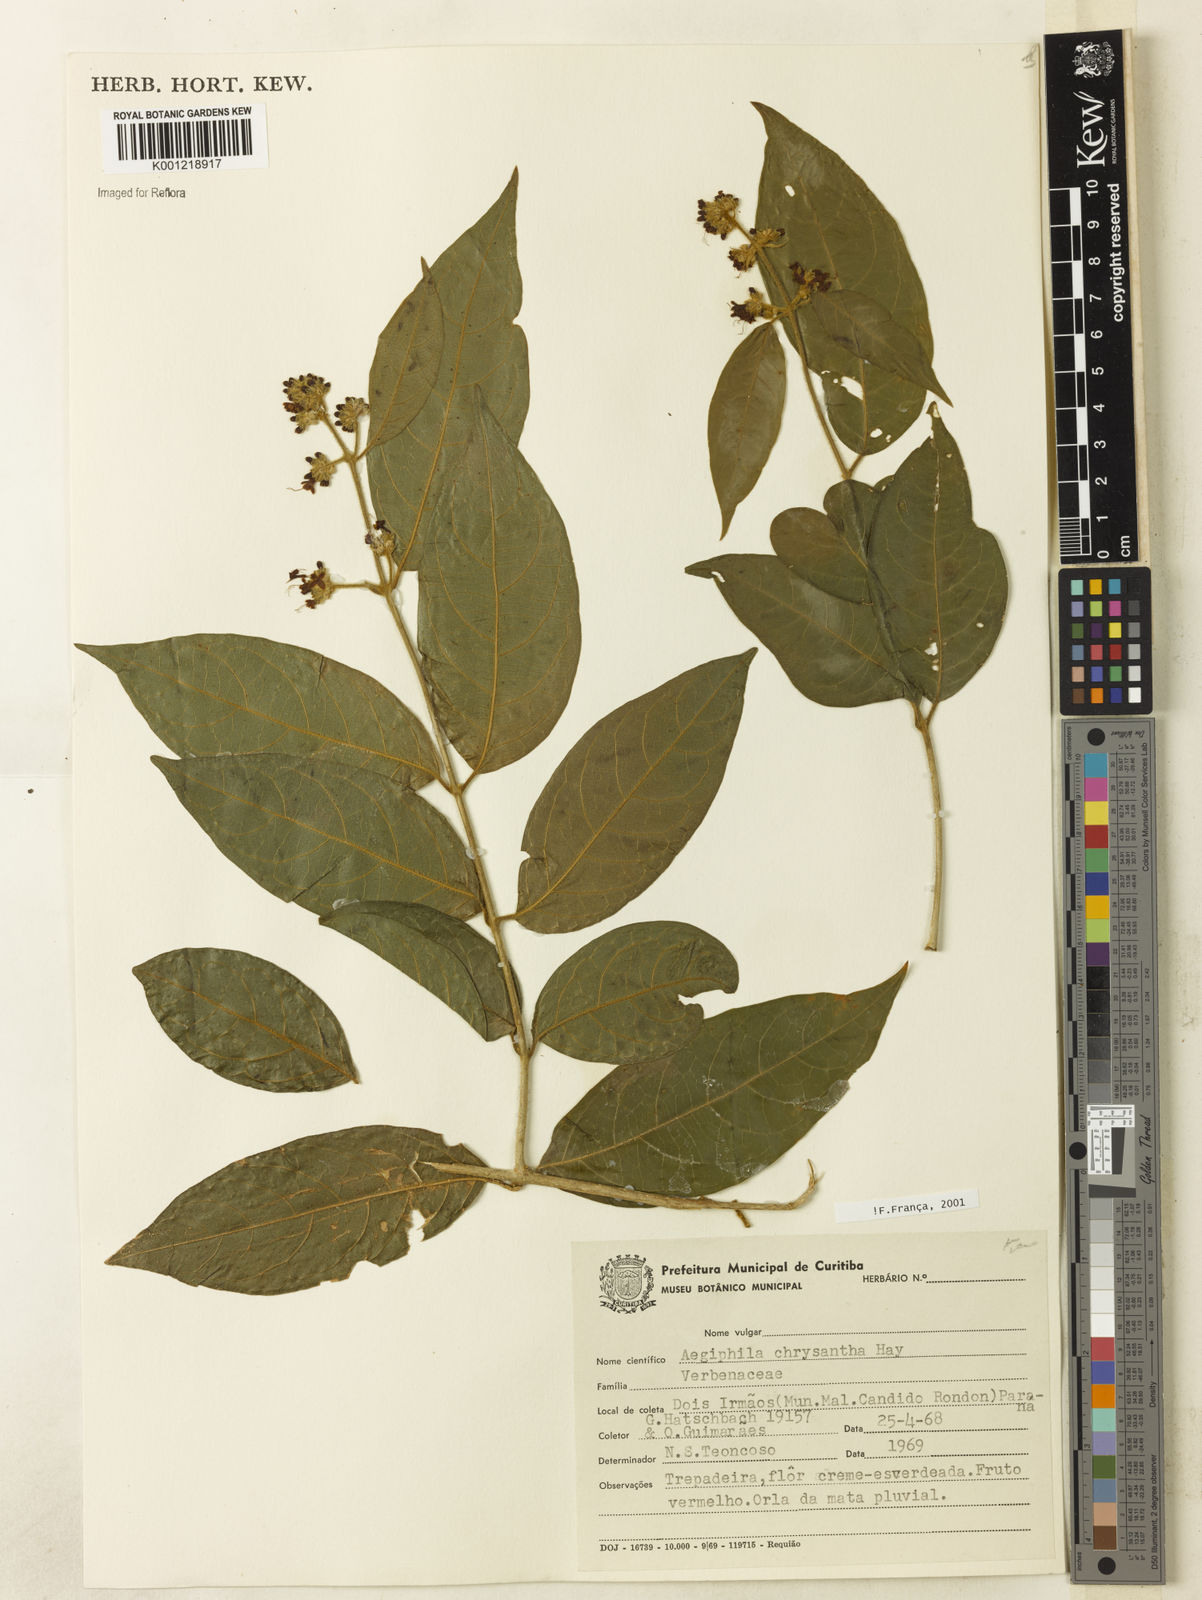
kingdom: Plantae
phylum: Tracheophyta
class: Magnoliopsida
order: Lamiales
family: Lamiaceae
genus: Aegiphila
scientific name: Aegiphila vitelliniflora
